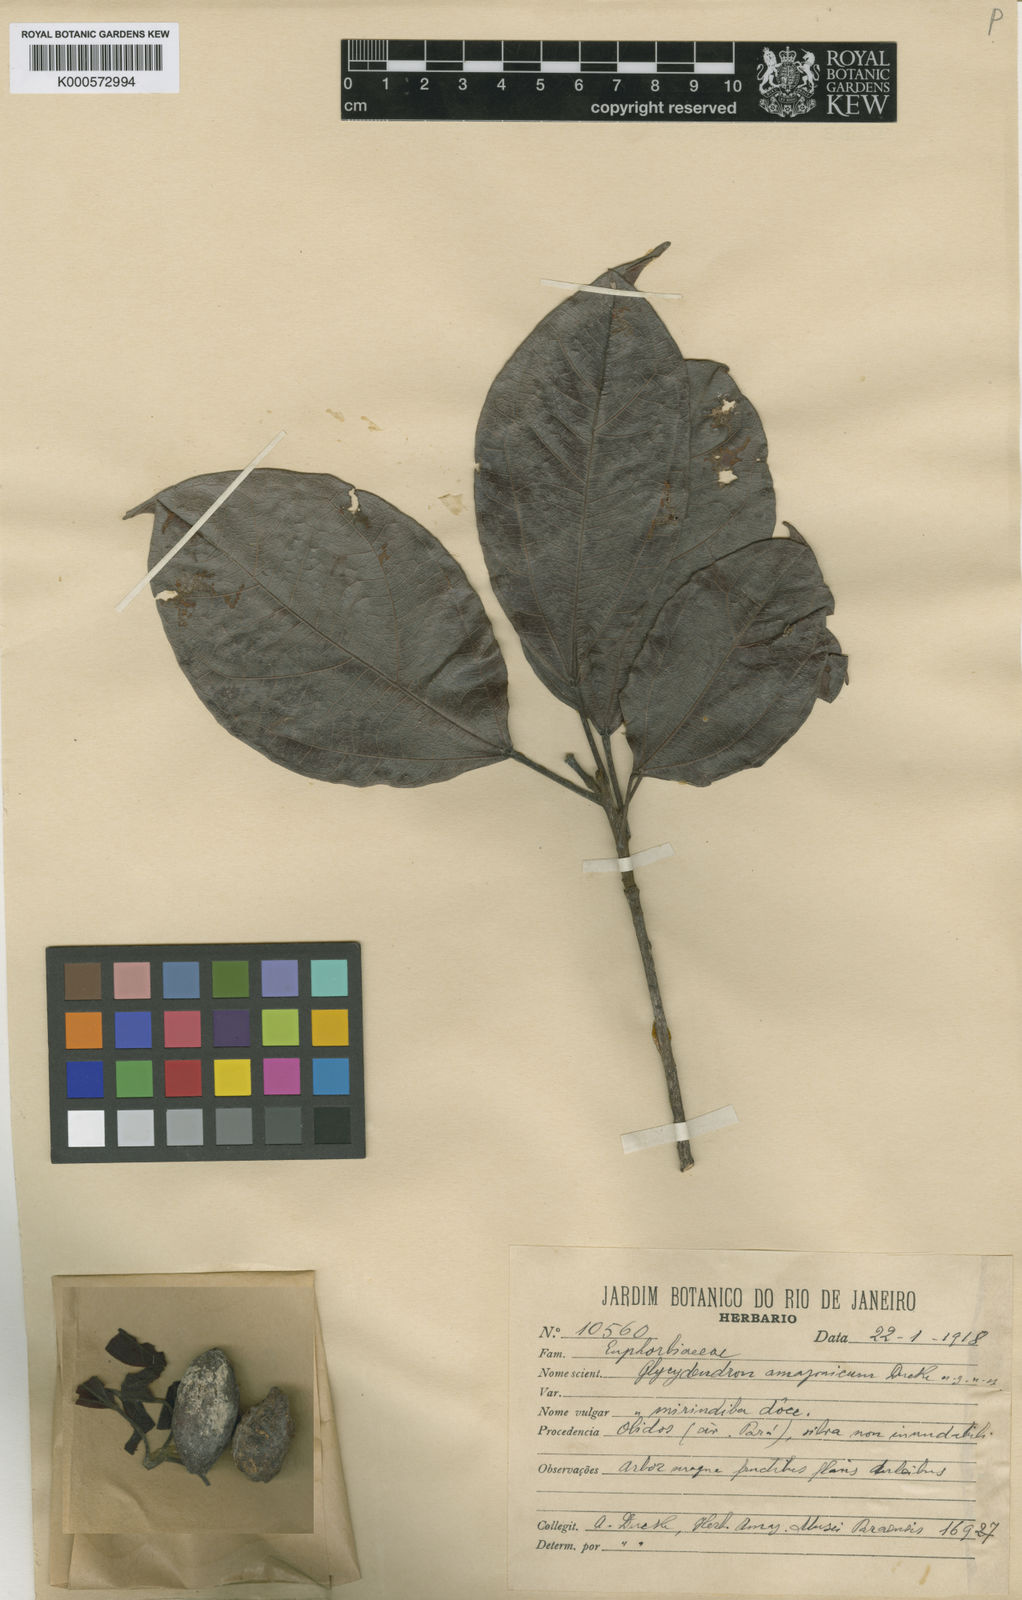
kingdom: Plantae
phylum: Tracheophyta
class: Magnoliopsida
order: Malpighiales
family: Euphorbiaceae
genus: Glycydendron
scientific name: Glycydendron amazonicum
